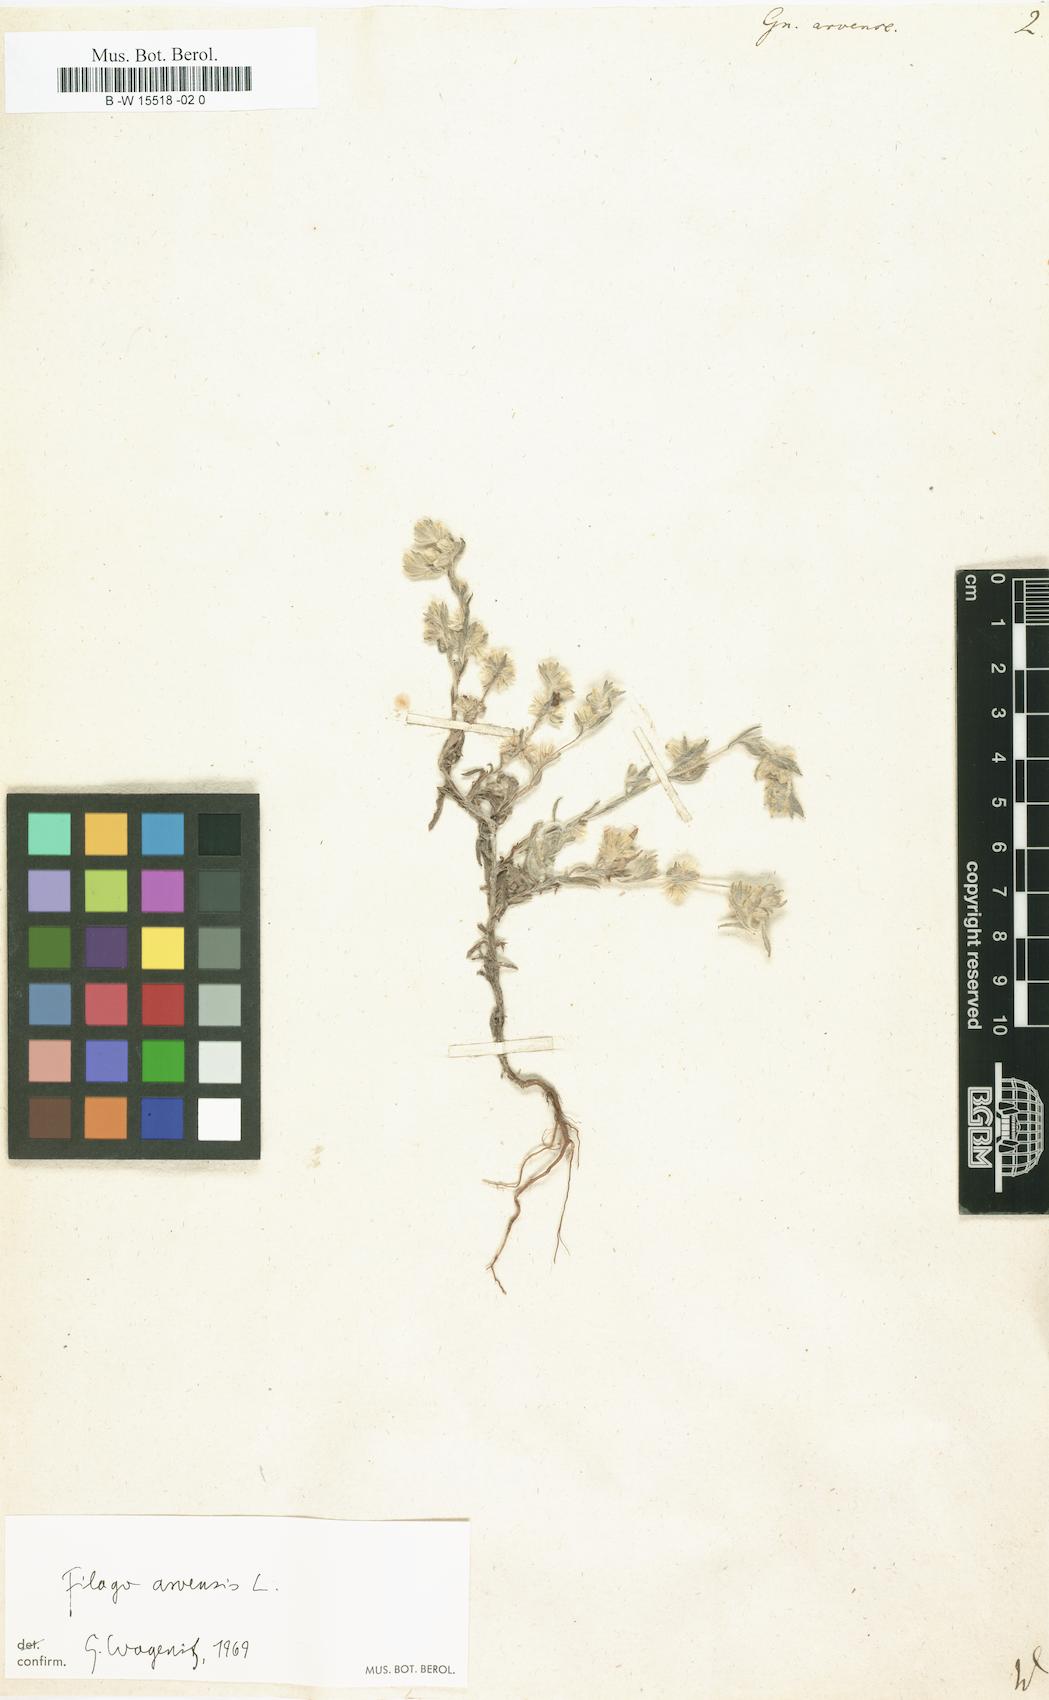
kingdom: Plantae
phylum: Tracheophyta
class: Magnoliopsida
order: Asterales
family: Asteraceae
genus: Filago
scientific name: Filago arvensis
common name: Field cudweed
